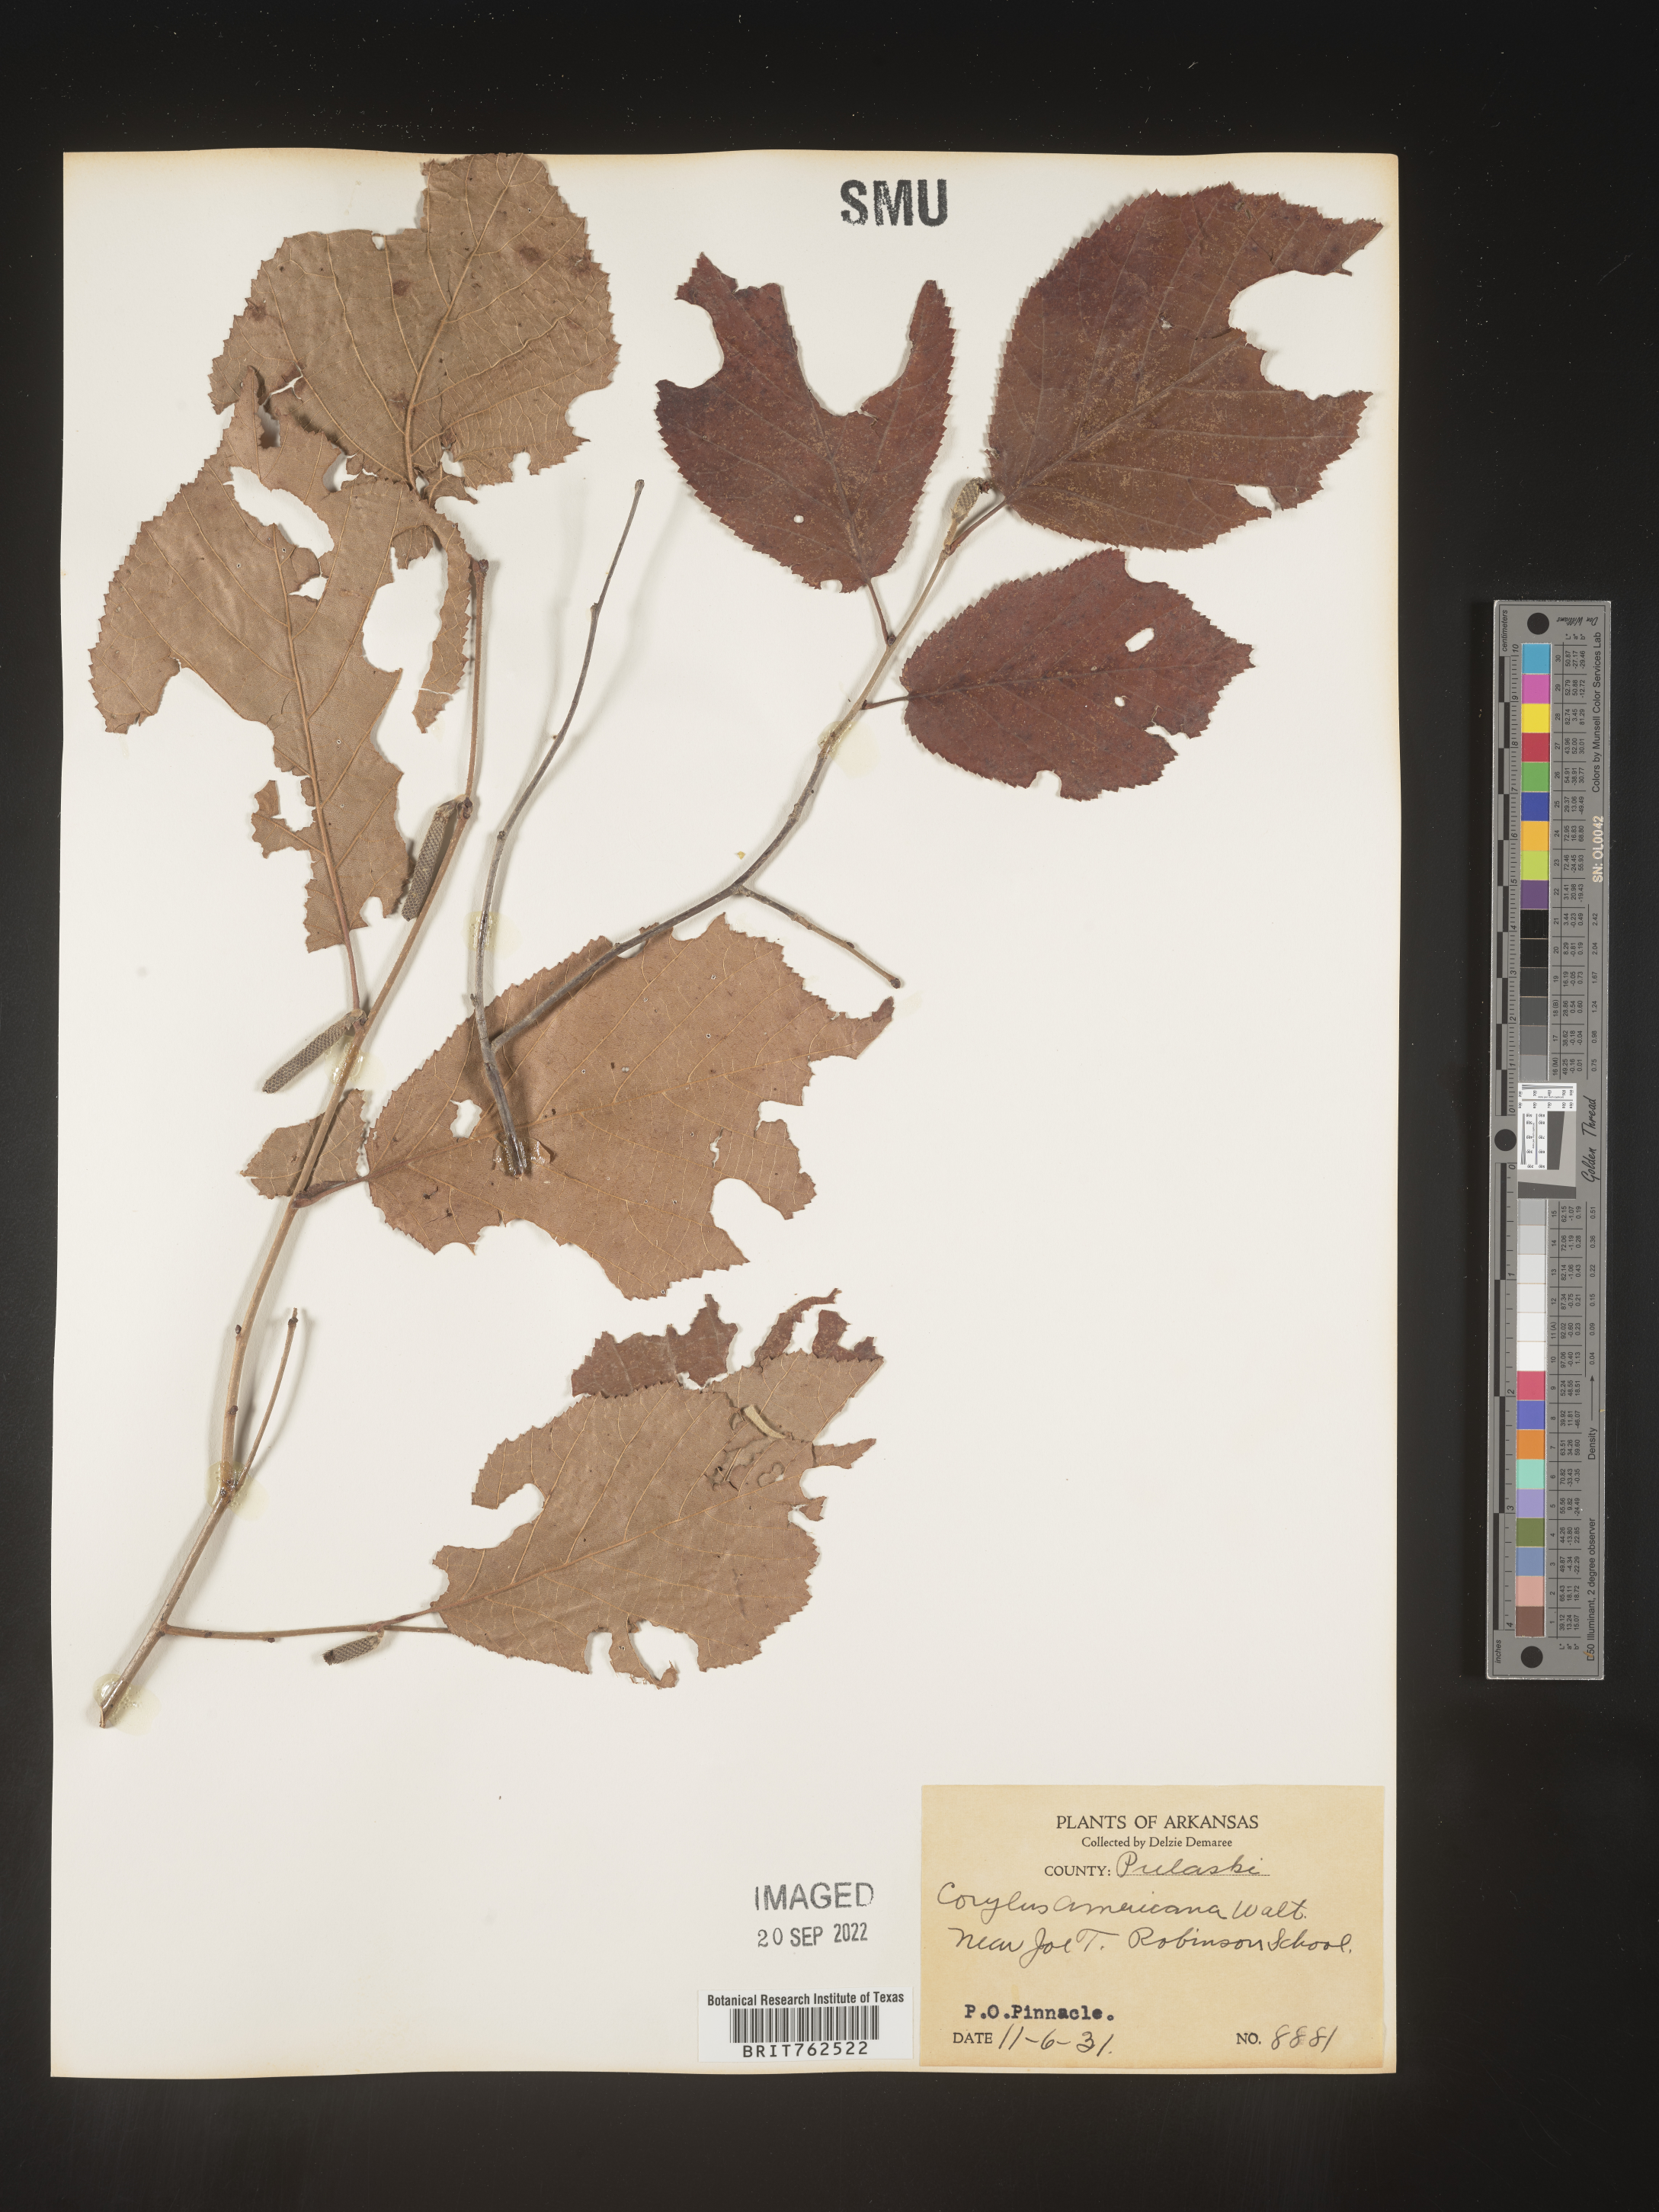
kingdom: Plantae
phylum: Tracheophyta
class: Magnoliopsida
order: Fagales
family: Betulaceae
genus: Corylus
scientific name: Corylus americana
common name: American hazel
